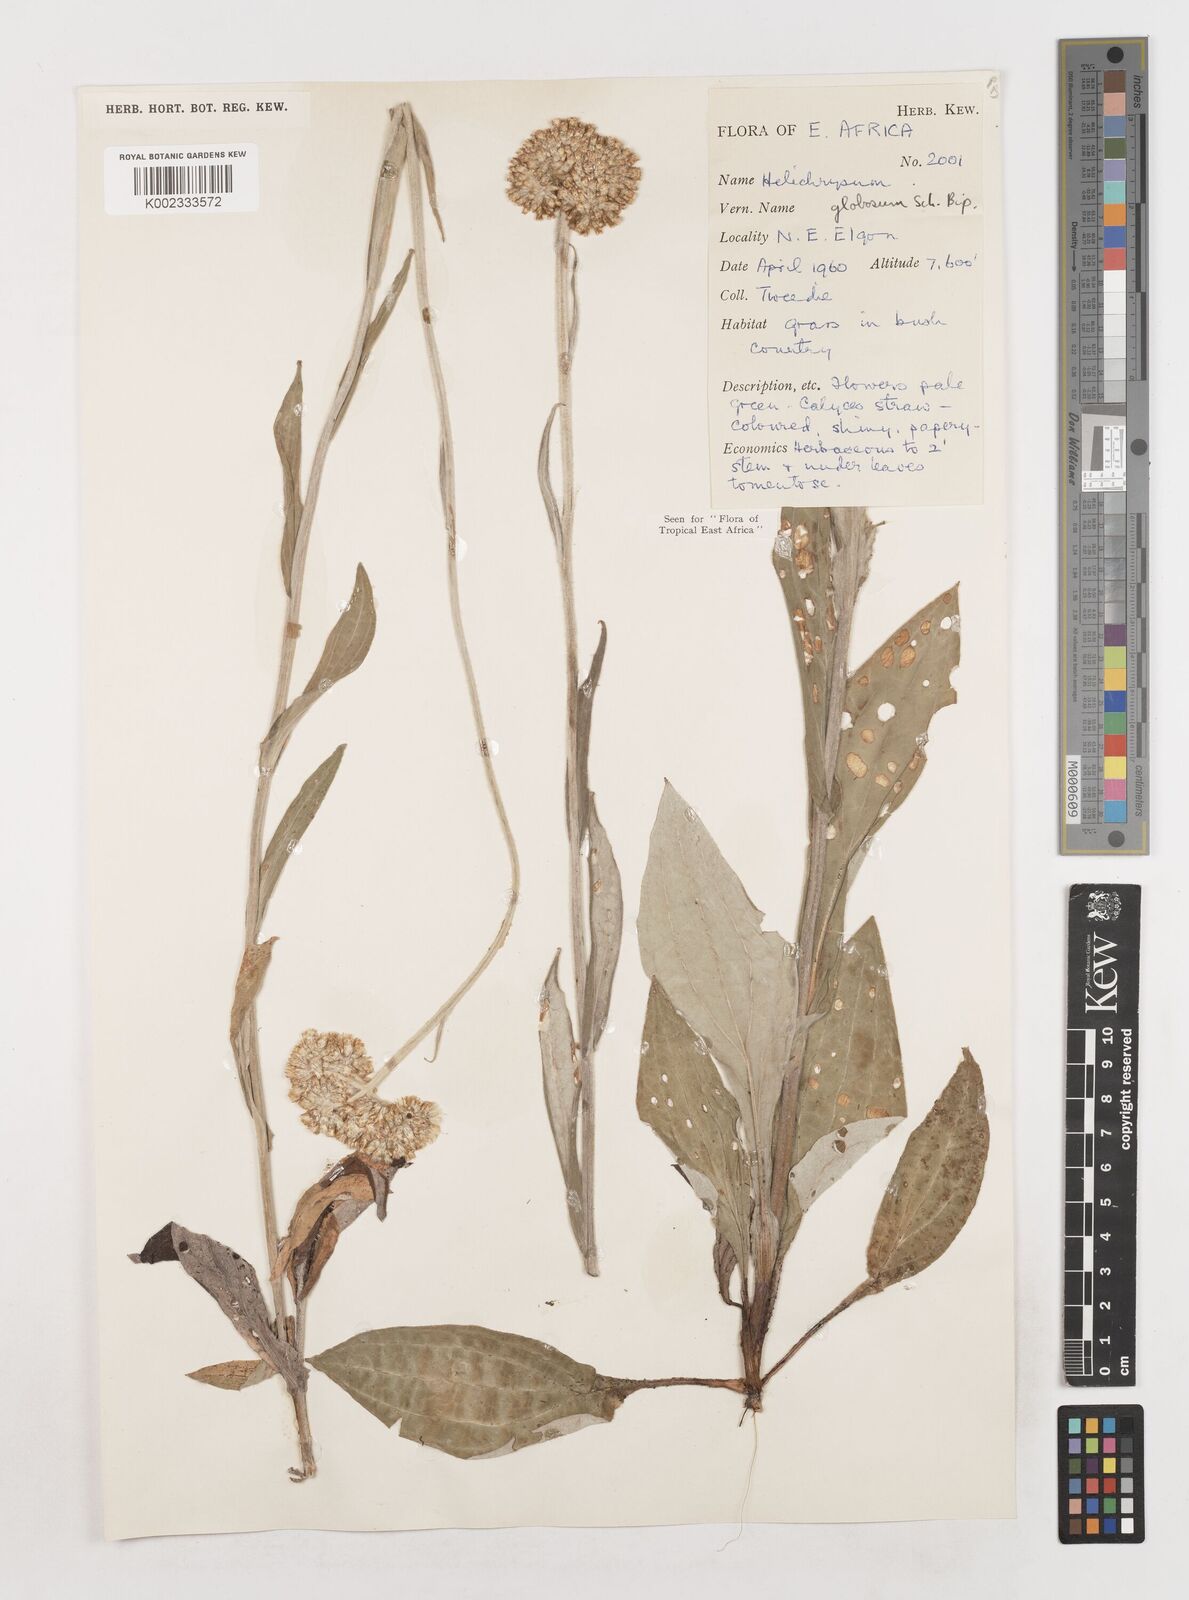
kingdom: Plantae
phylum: Tracheophyta
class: Magnoliopsida
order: Asterales
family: Asteraceae
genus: Helichrysum
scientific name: Helichrysum globosum
